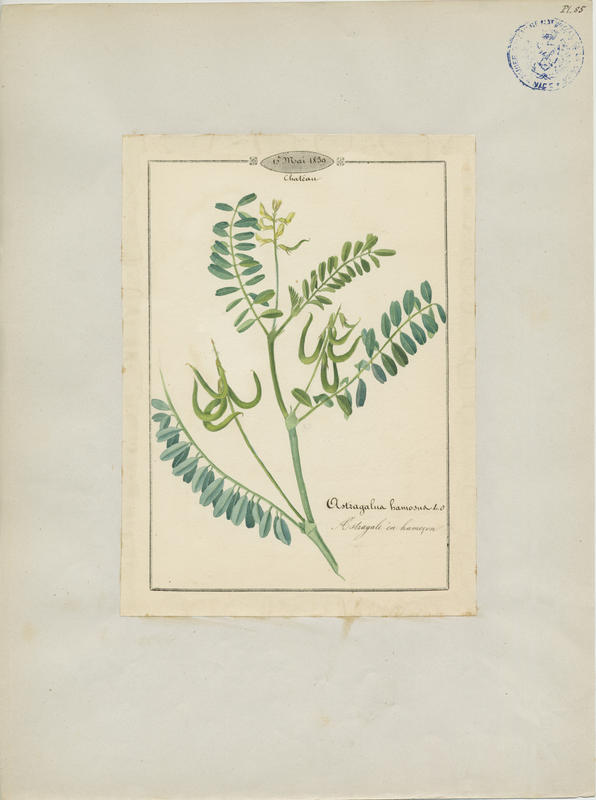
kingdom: Plantae
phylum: Tracheophyta
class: Magnoliopsida
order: Fabales
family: Fabaceae
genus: Astragalus
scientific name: Astragalus hamosus
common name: European milkvetch
